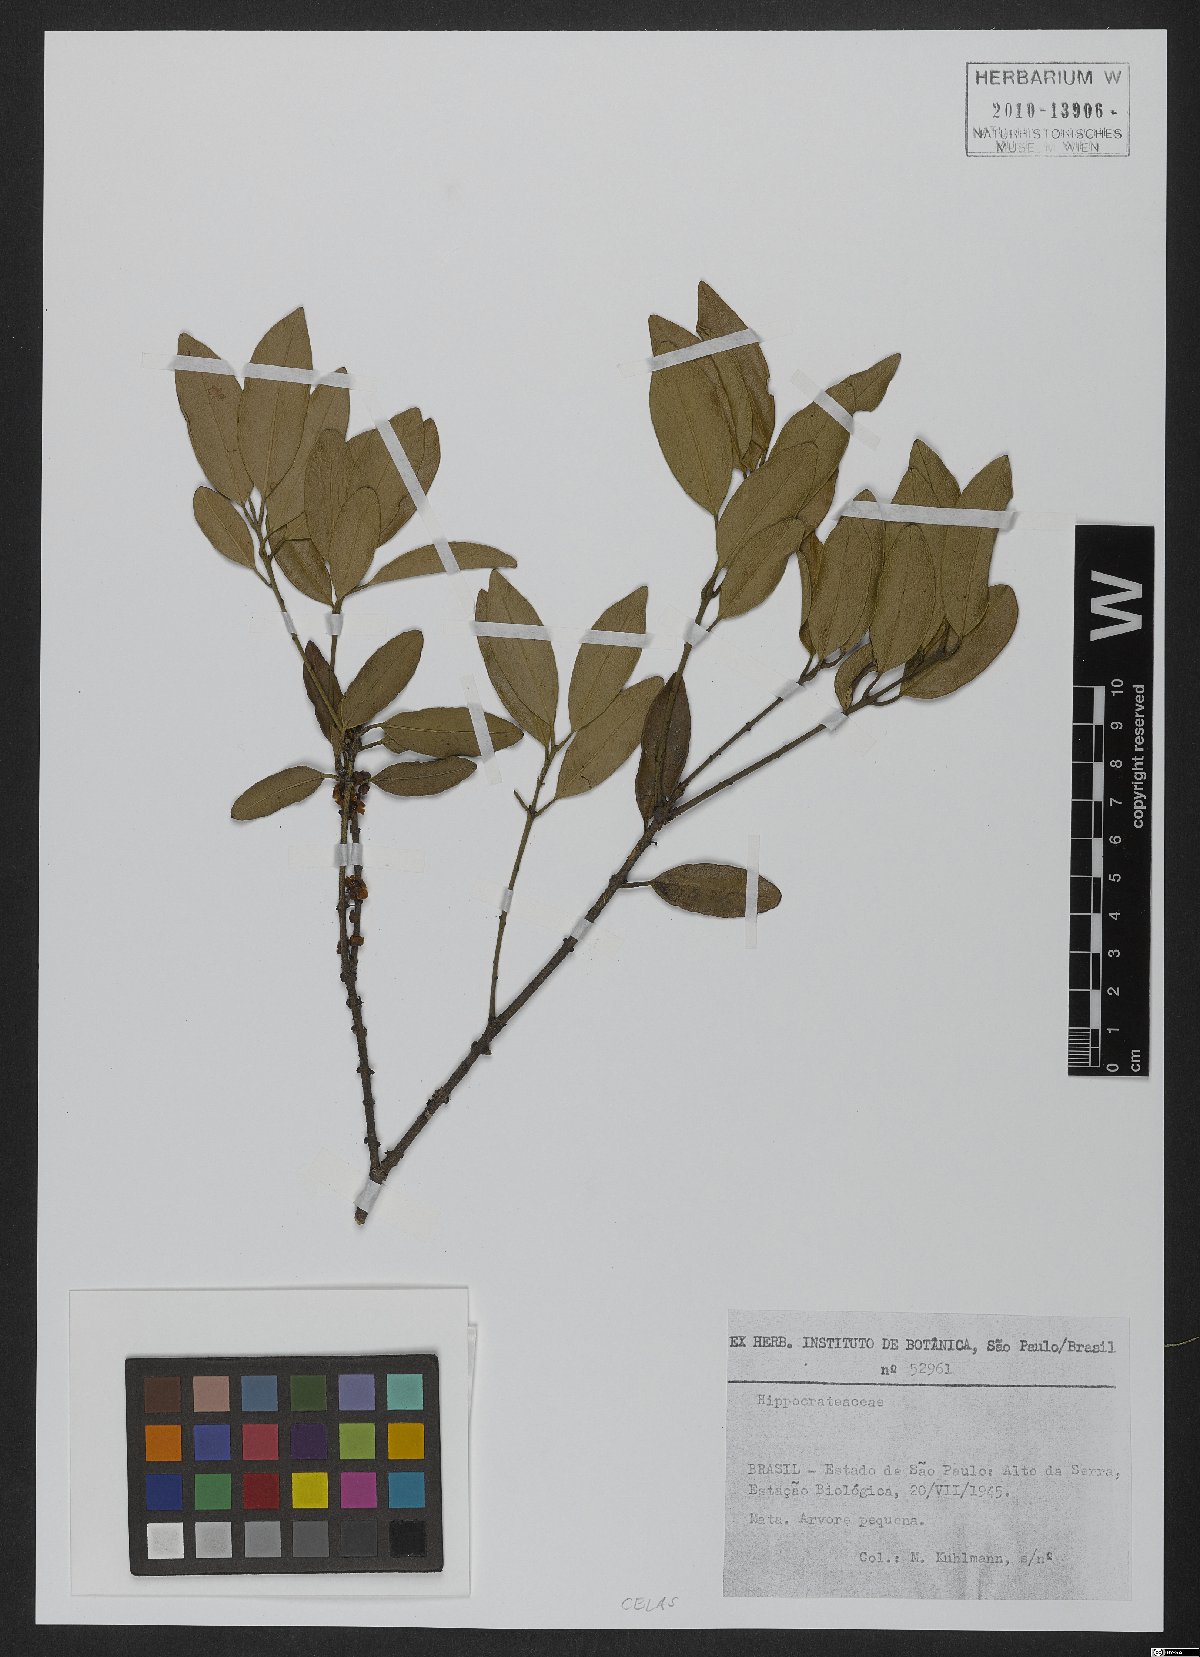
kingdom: Plantae
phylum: Tracheophyta
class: Magnoliopsida
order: Celastrales
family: Celastraceae
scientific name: Celastraceae
